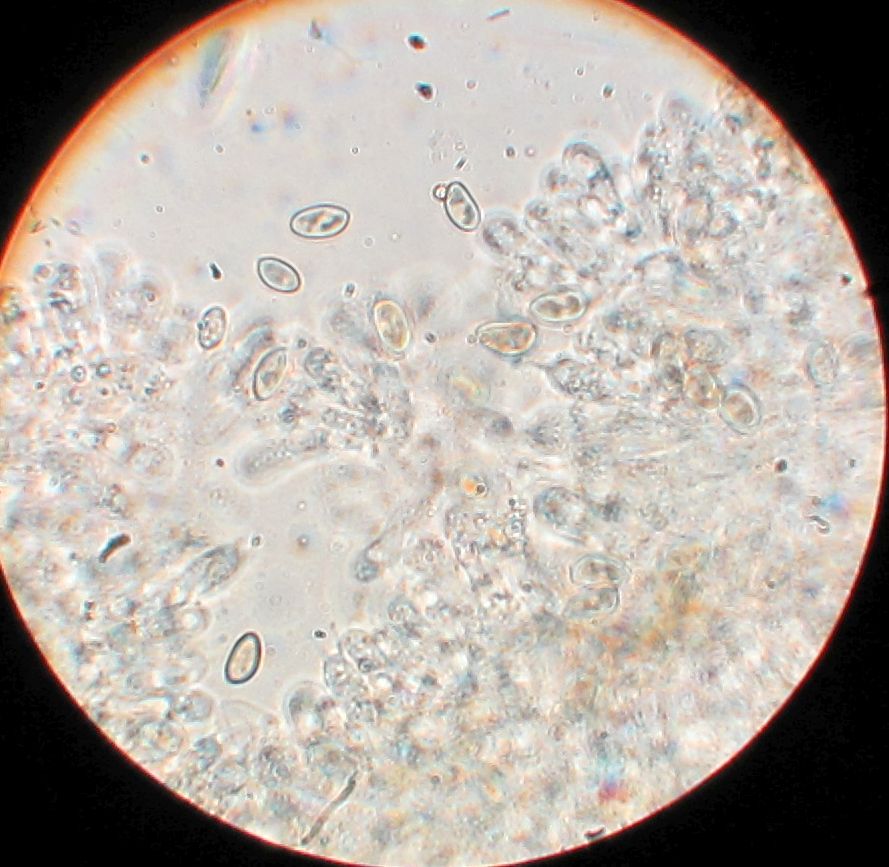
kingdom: Fungi
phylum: Basidiomycota
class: Agaricomycetes
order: Agaricales
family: Crepidotaceae
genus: Simocybe
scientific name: Simocybe haustellaris
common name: skæv skyggehat
